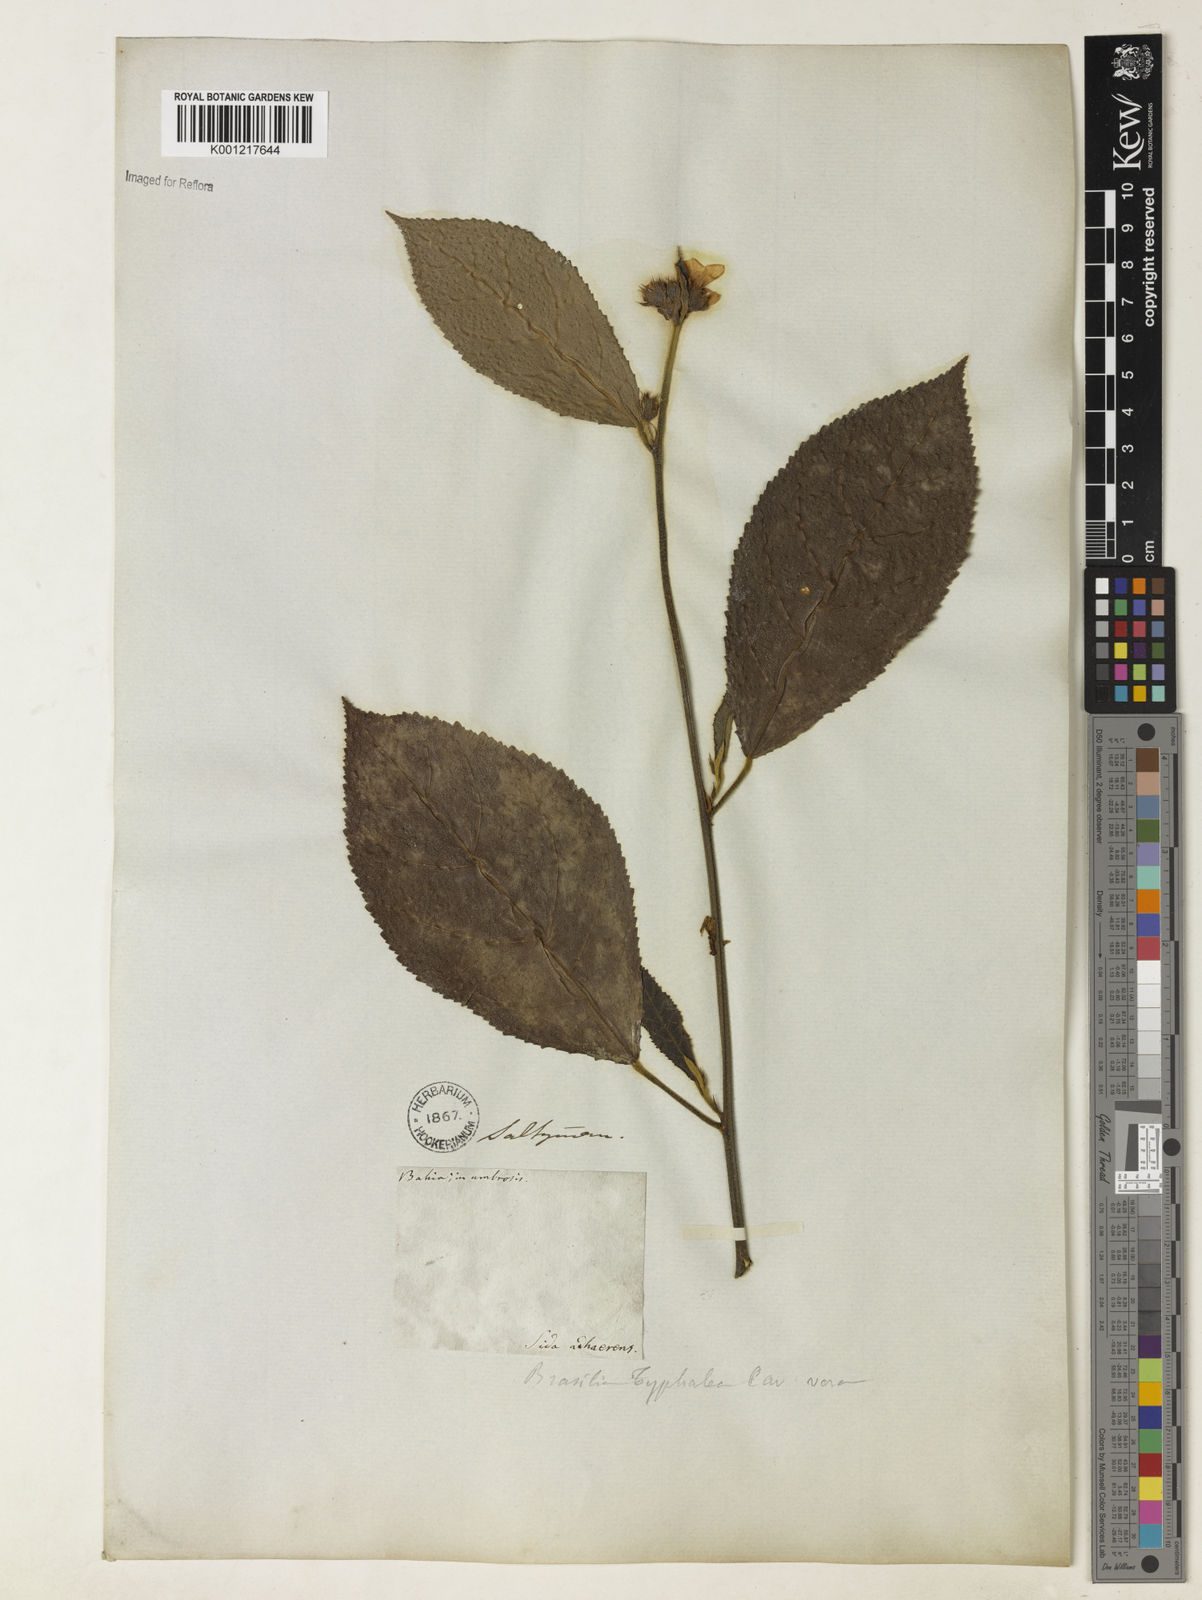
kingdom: Plantae
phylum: Tracheophyta
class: Magnoliopsida
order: Malvales
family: Malvaceae
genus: Pavonia
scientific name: Pavonia castaneifolia
